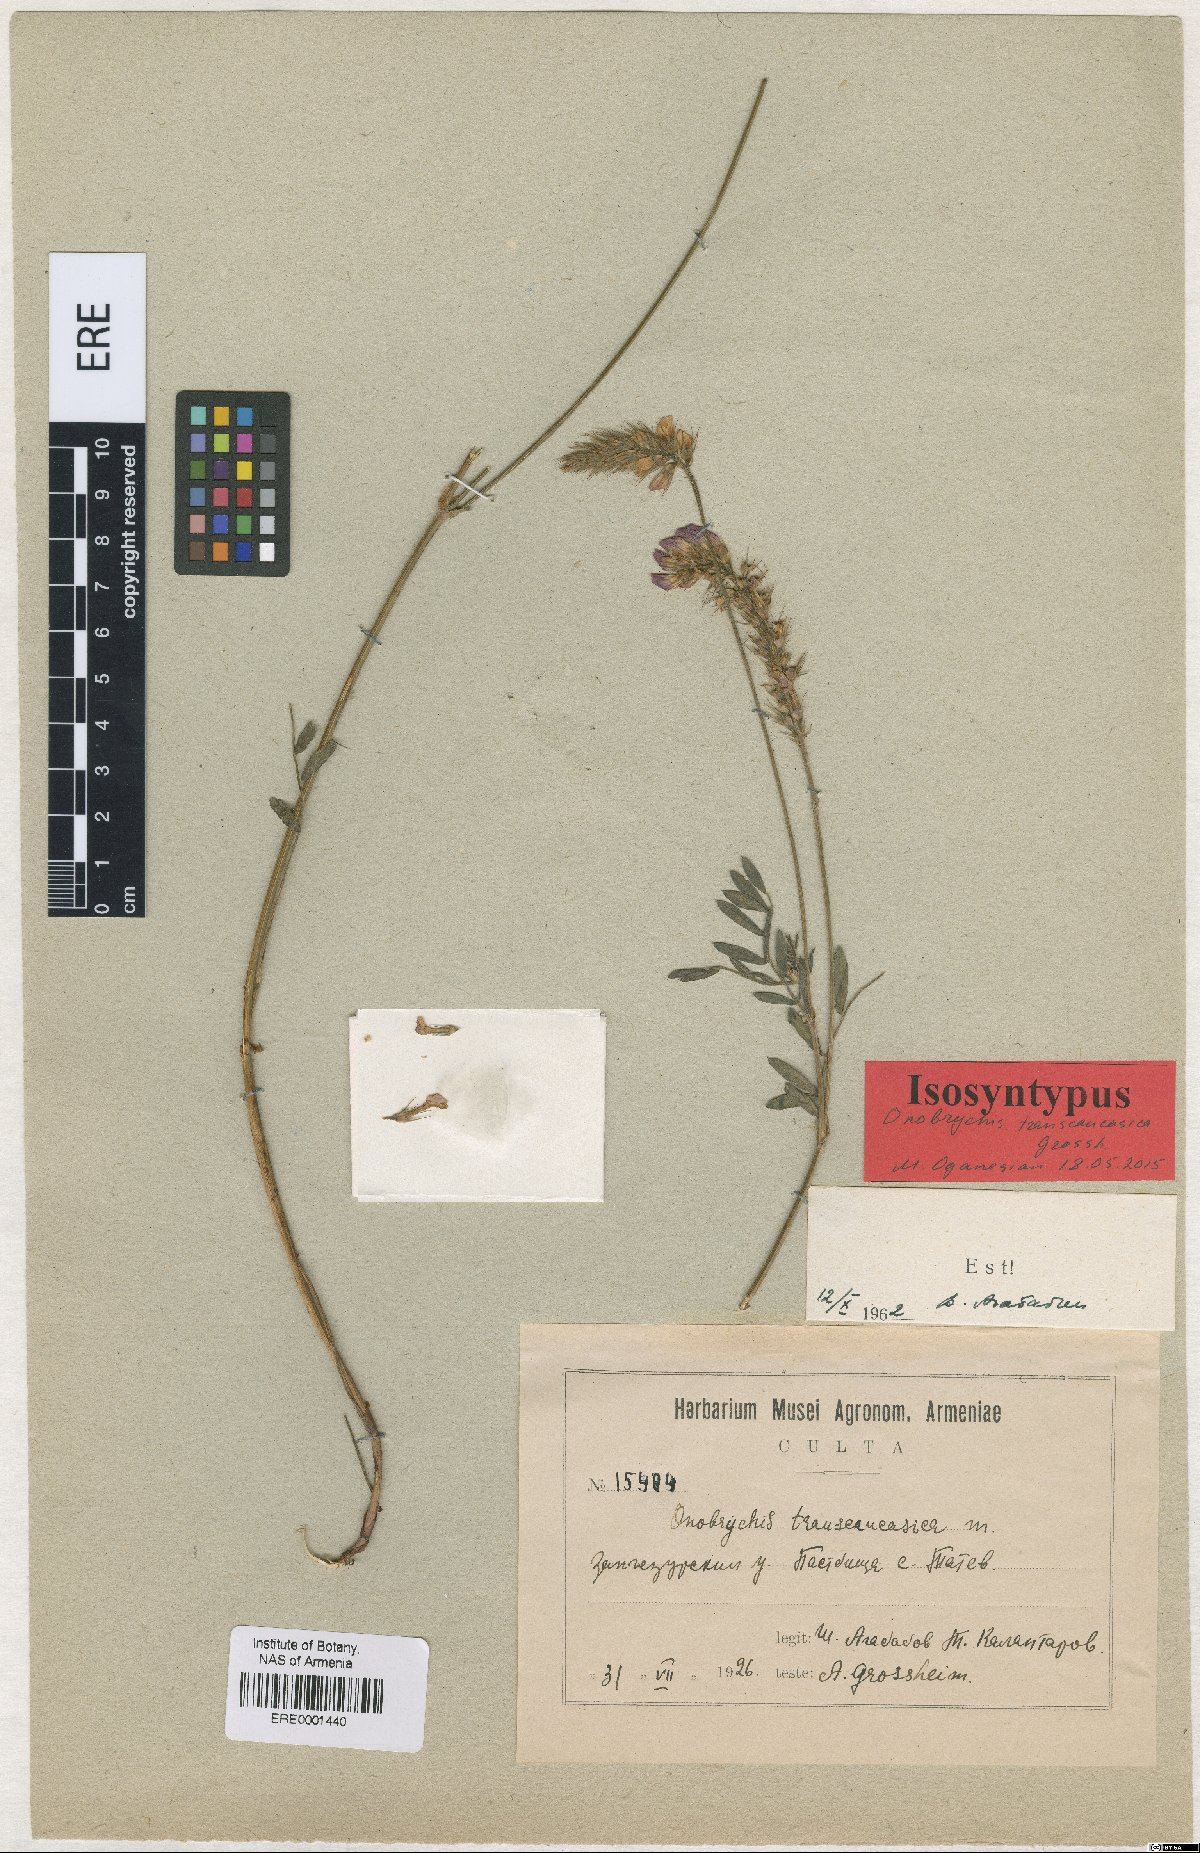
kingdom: Plantae
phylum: Tracheophyta
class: Magnoliopsida
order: Fabales
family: Fabaceae
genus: Onobrychis
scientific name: Onobrychis transcaucasica
